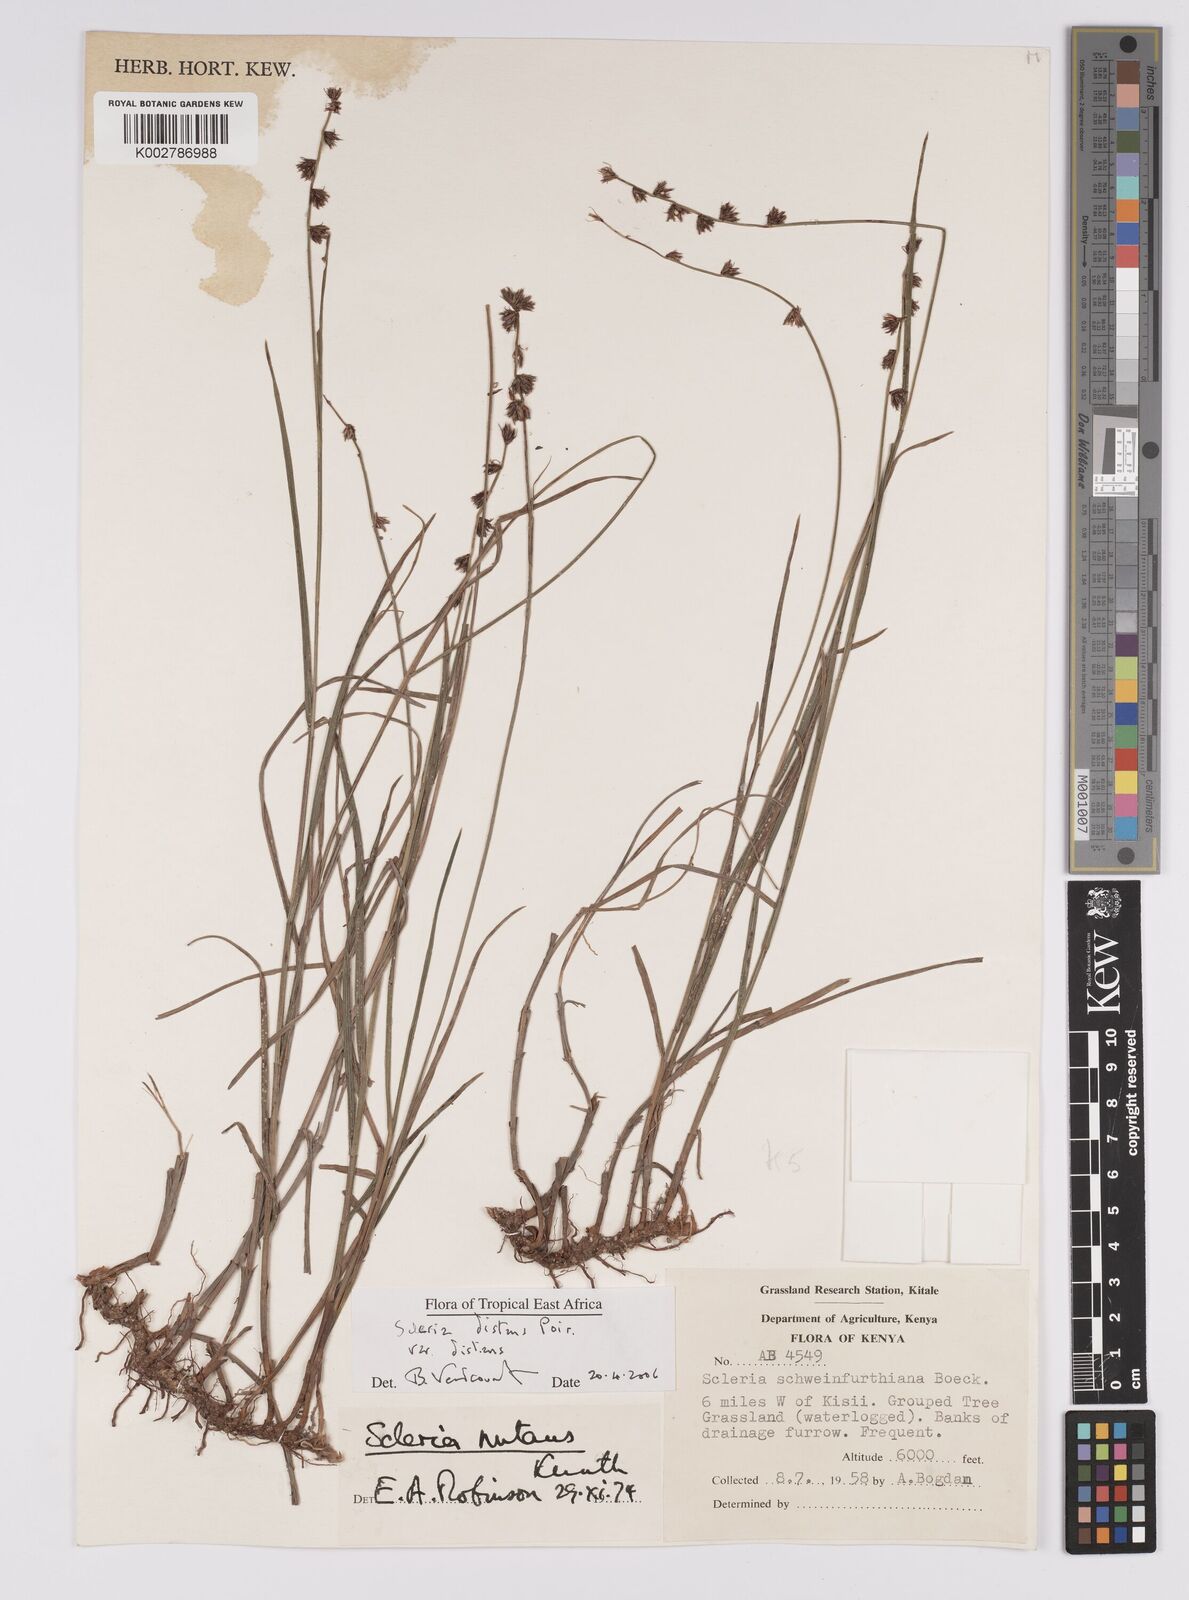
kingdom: Plantae
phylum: Tracheophyta
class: Liliopsida
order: Poales
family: Cyperaceae
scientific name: Cyperaceae
